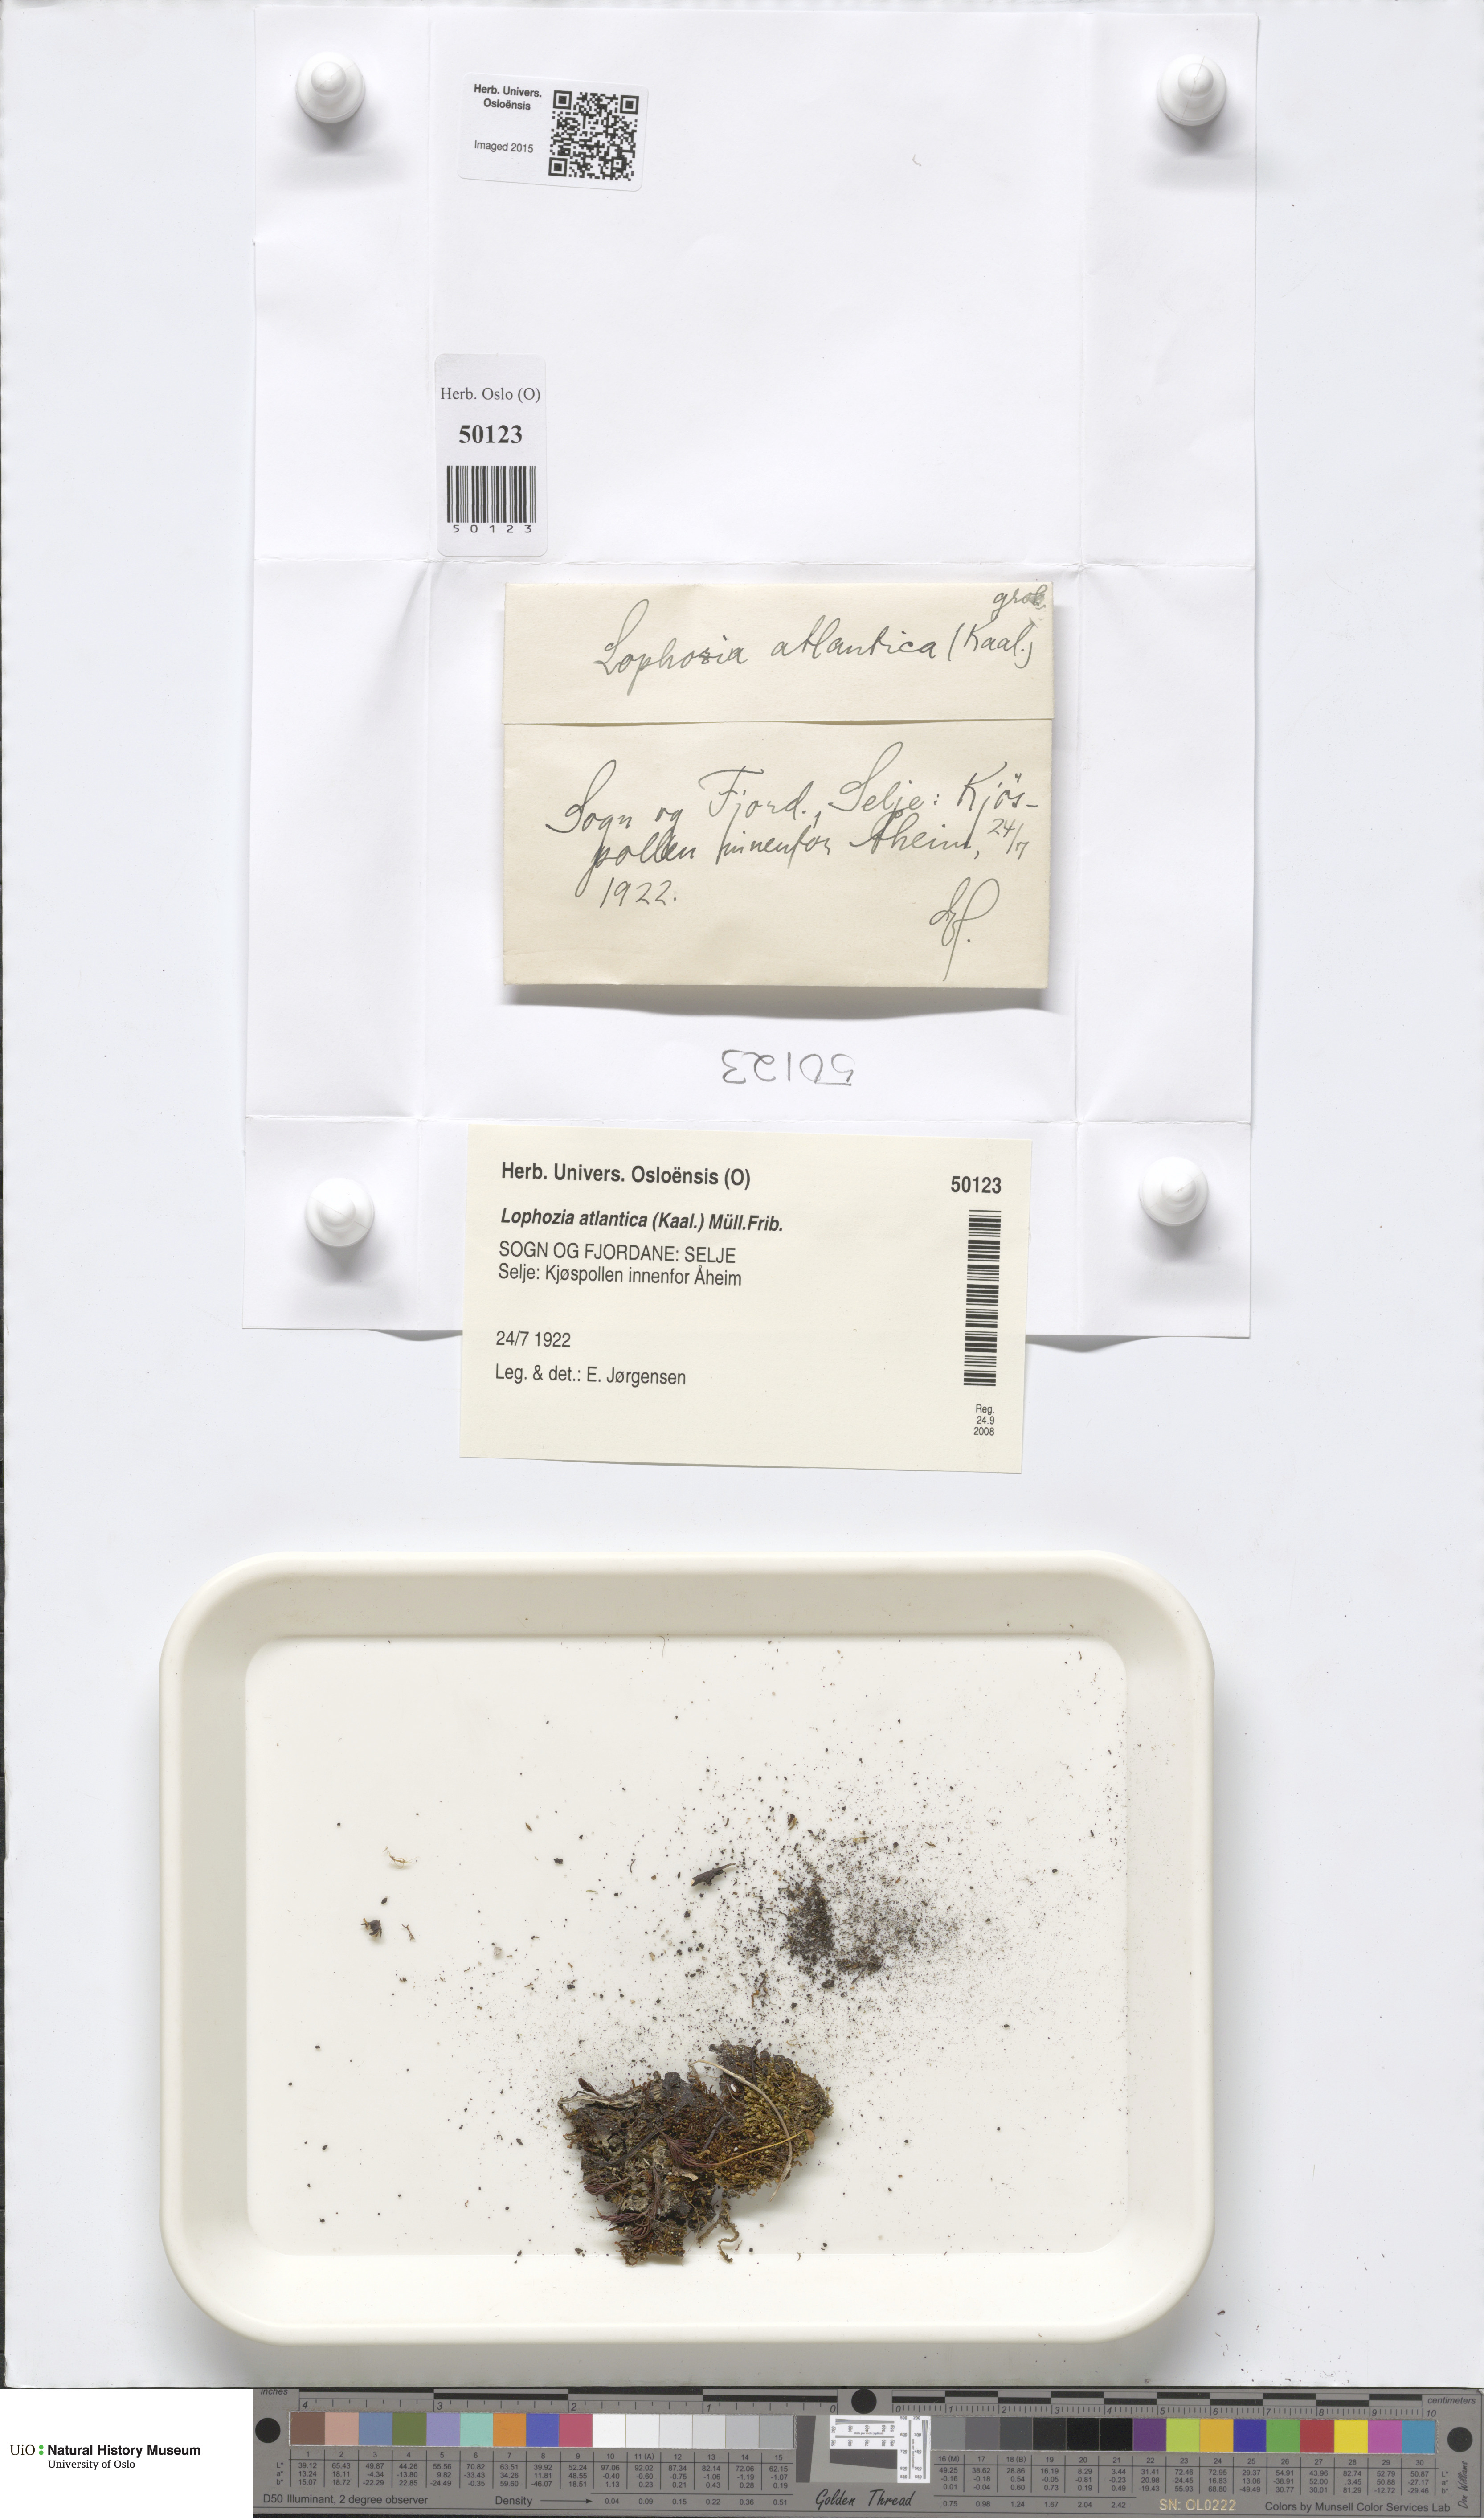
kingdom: Plantae
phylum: Marchantiophyta
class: Jungermanniopsida
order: Jungermanniales
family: Anastrophyllaceae
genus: Orthocaulis
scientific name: Orthocaulis atlanticus
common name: Atlantic pawwort
